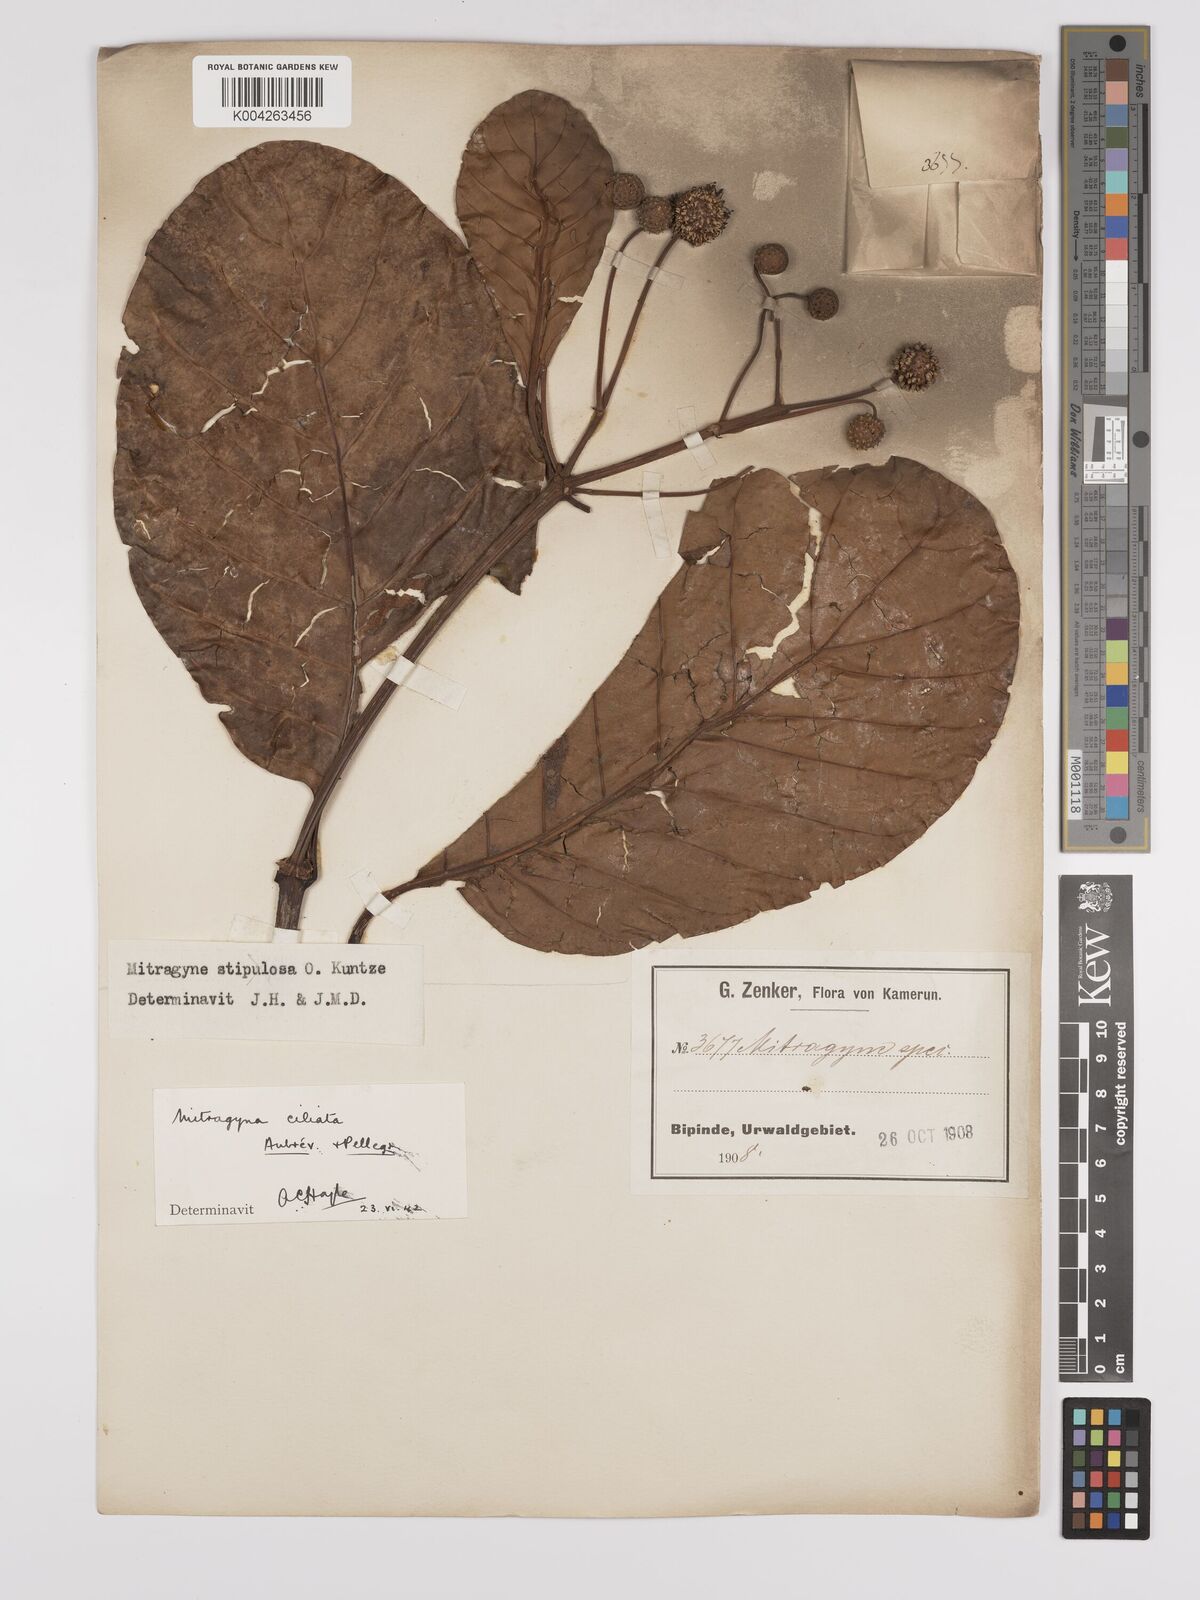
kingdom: Plantae
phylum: Tracheophyta
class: Magnoliopsida
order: Gentianales
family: Rubiaceae
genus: Mitragyna
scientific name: Mitragyna stipulosa
